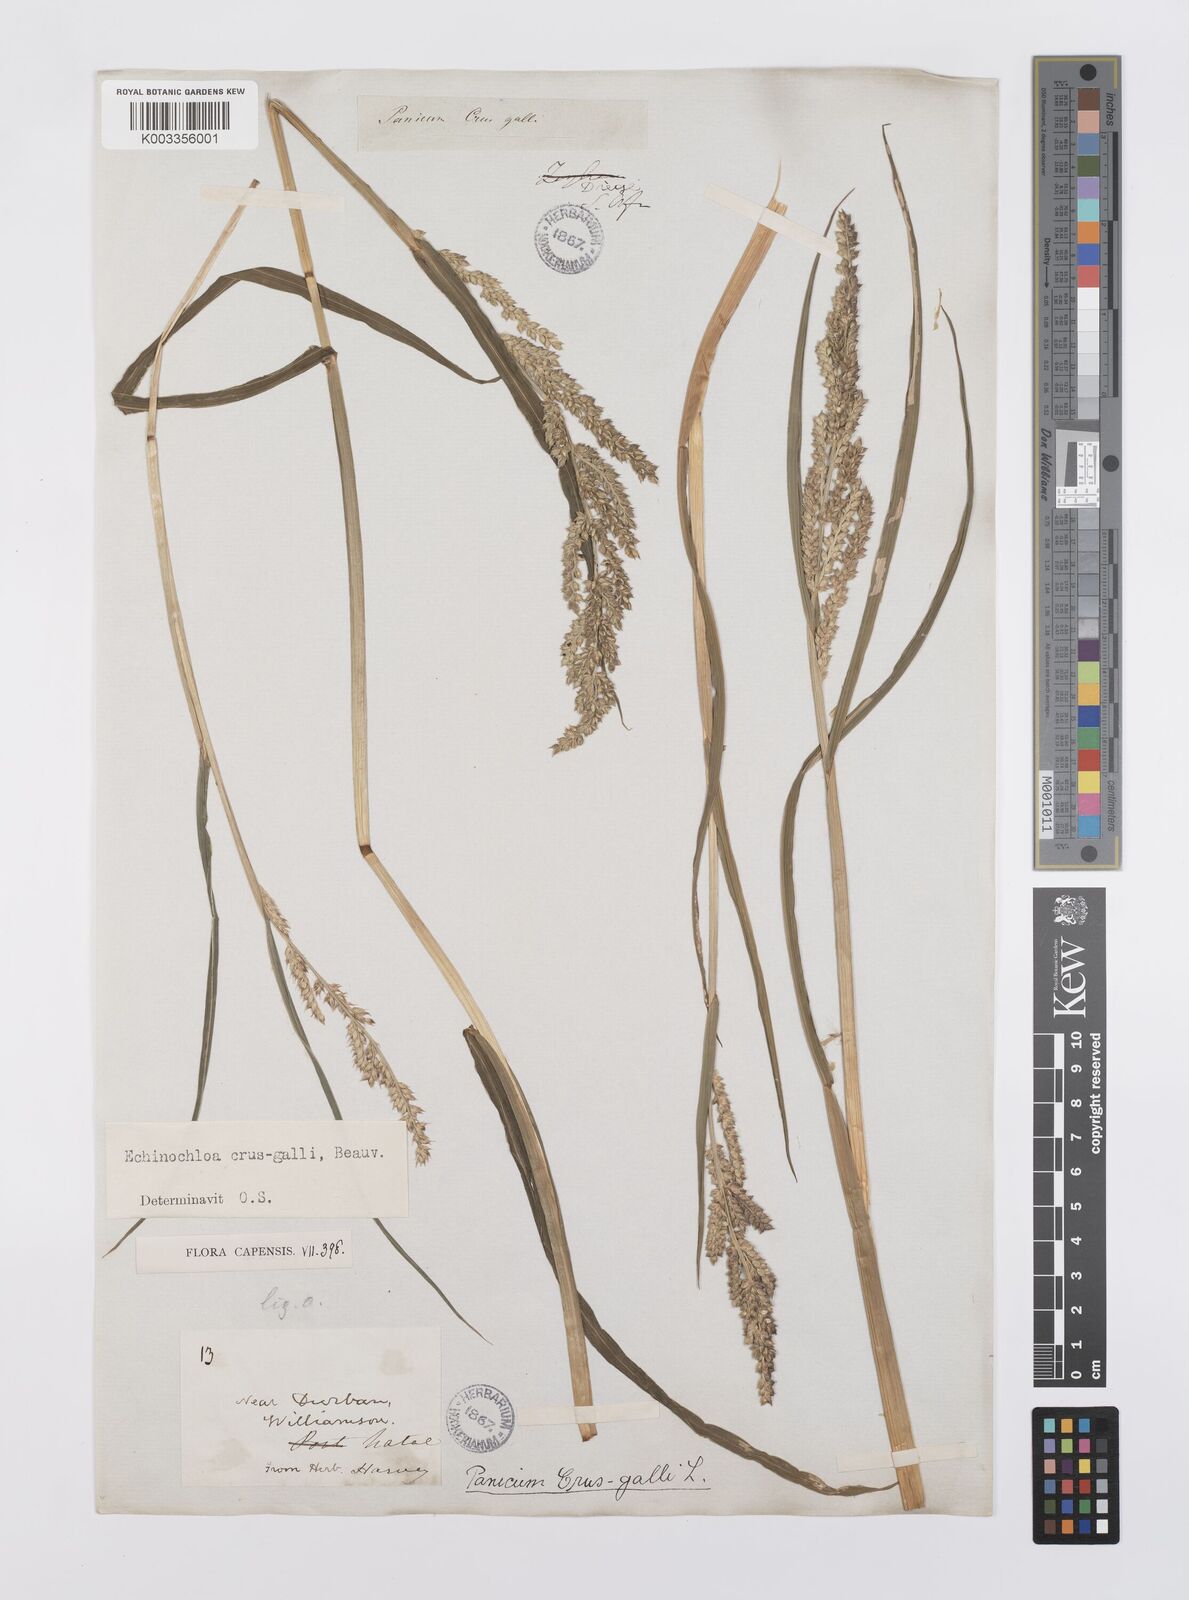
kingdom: Plantae
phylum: Tracheophyta
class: Liliopsida
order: Poales
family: Poaceae
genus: Echinochloa
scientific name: Echinochloa crus-galli
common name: Cockspur
